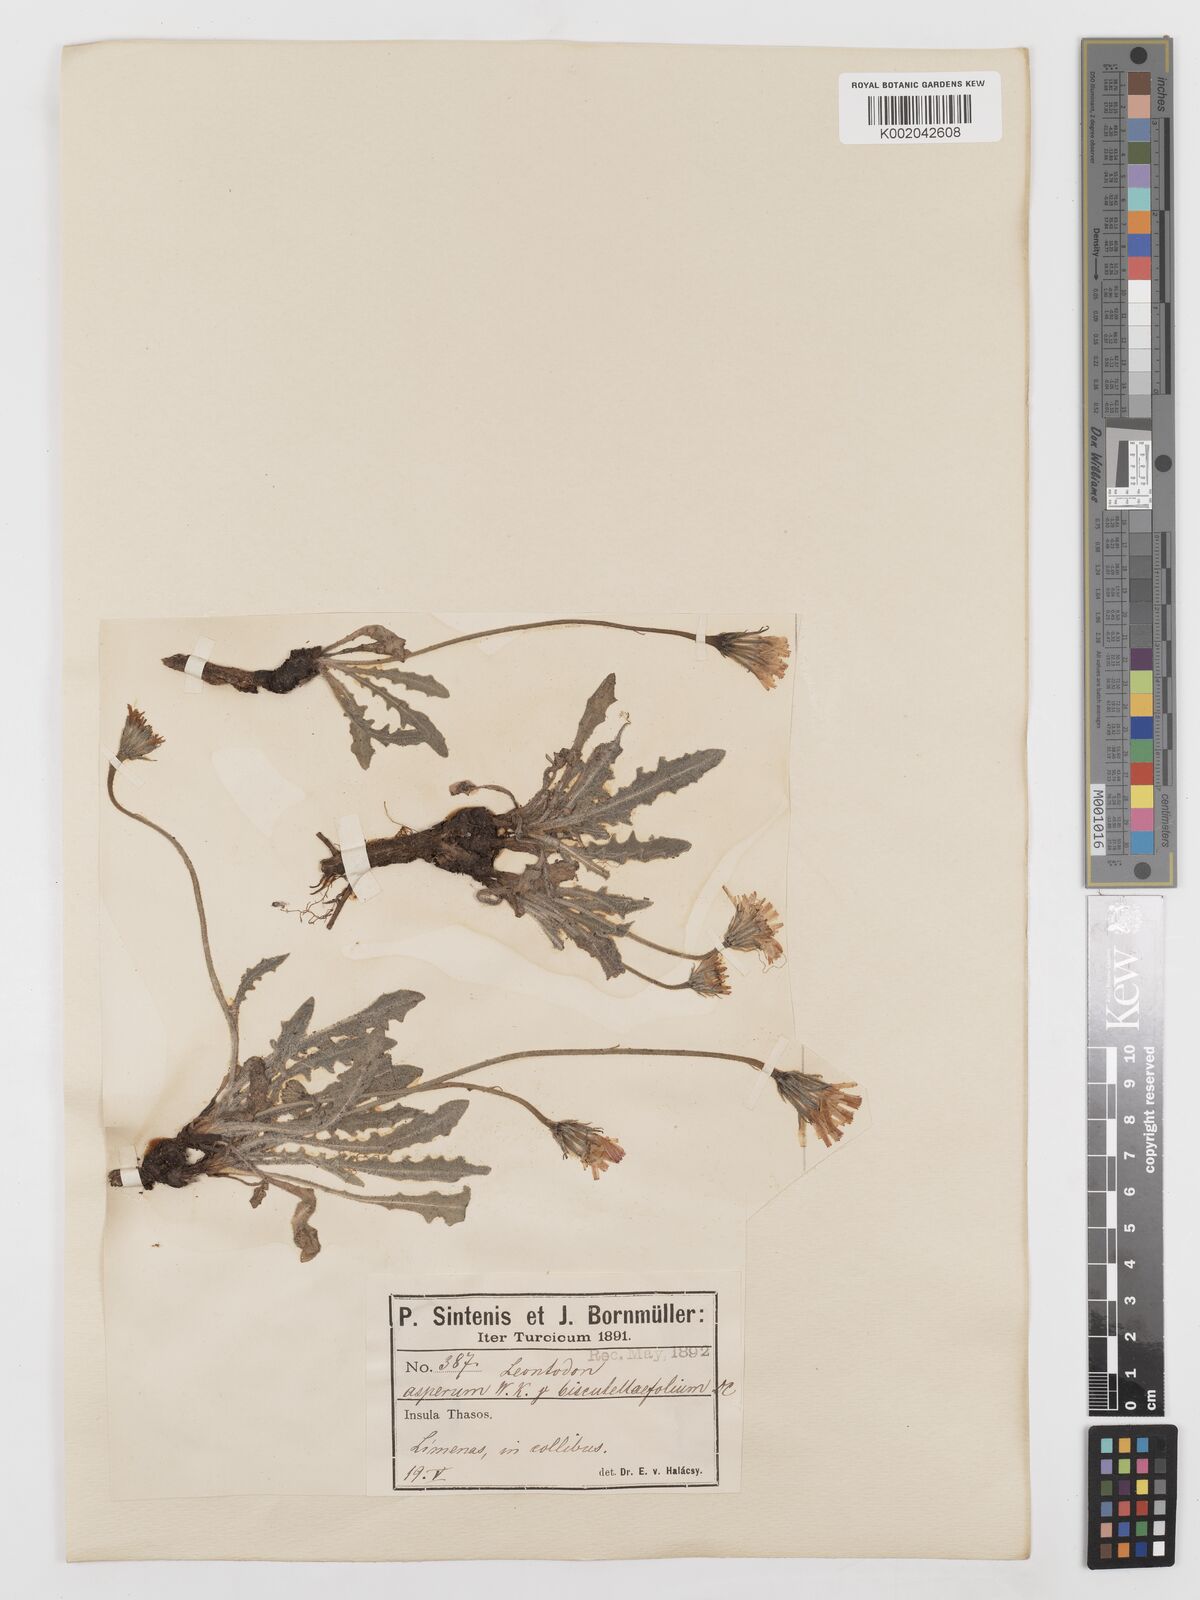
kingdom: Plantae
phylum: Tracheophyta
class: Magnoliopsida
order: Asterales
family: Asteraceae
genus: Leontodon
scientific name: Leontodon
